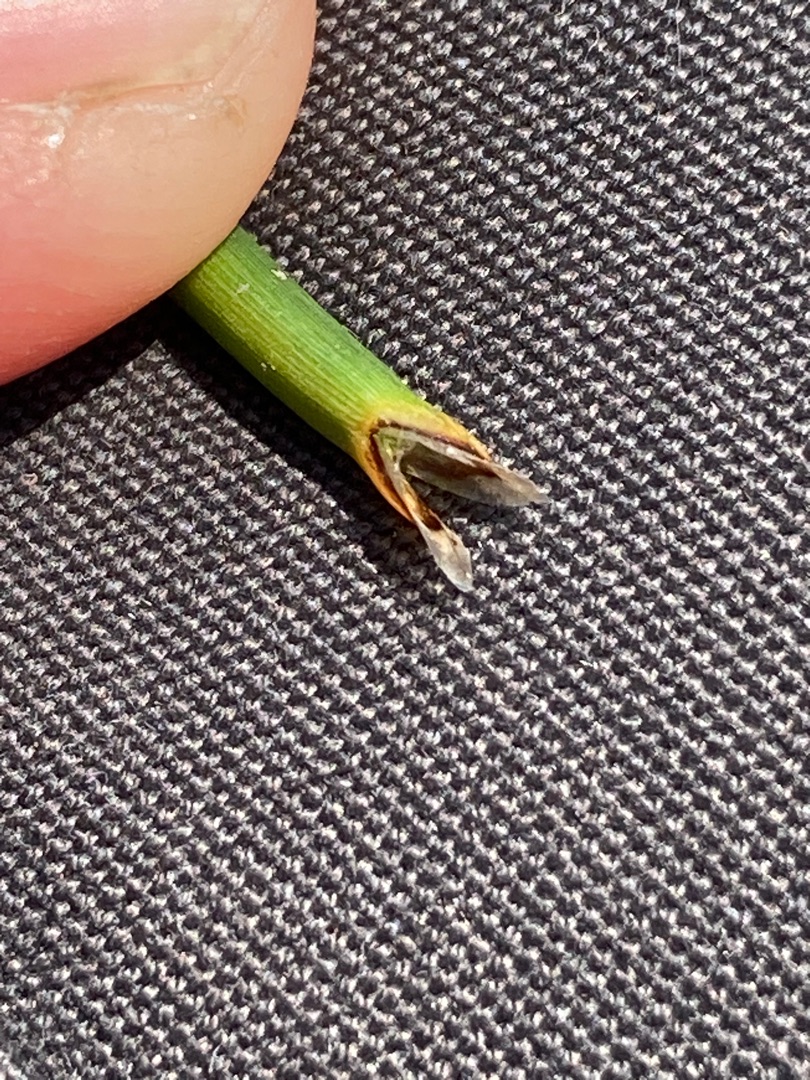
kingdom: Plantae
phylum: Tracheophyta
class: Liliopsida
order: Poales
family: Cyperaceae
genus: Eleocharis
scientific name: Eleocharis palustris
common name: Almindelig sumpstrå
